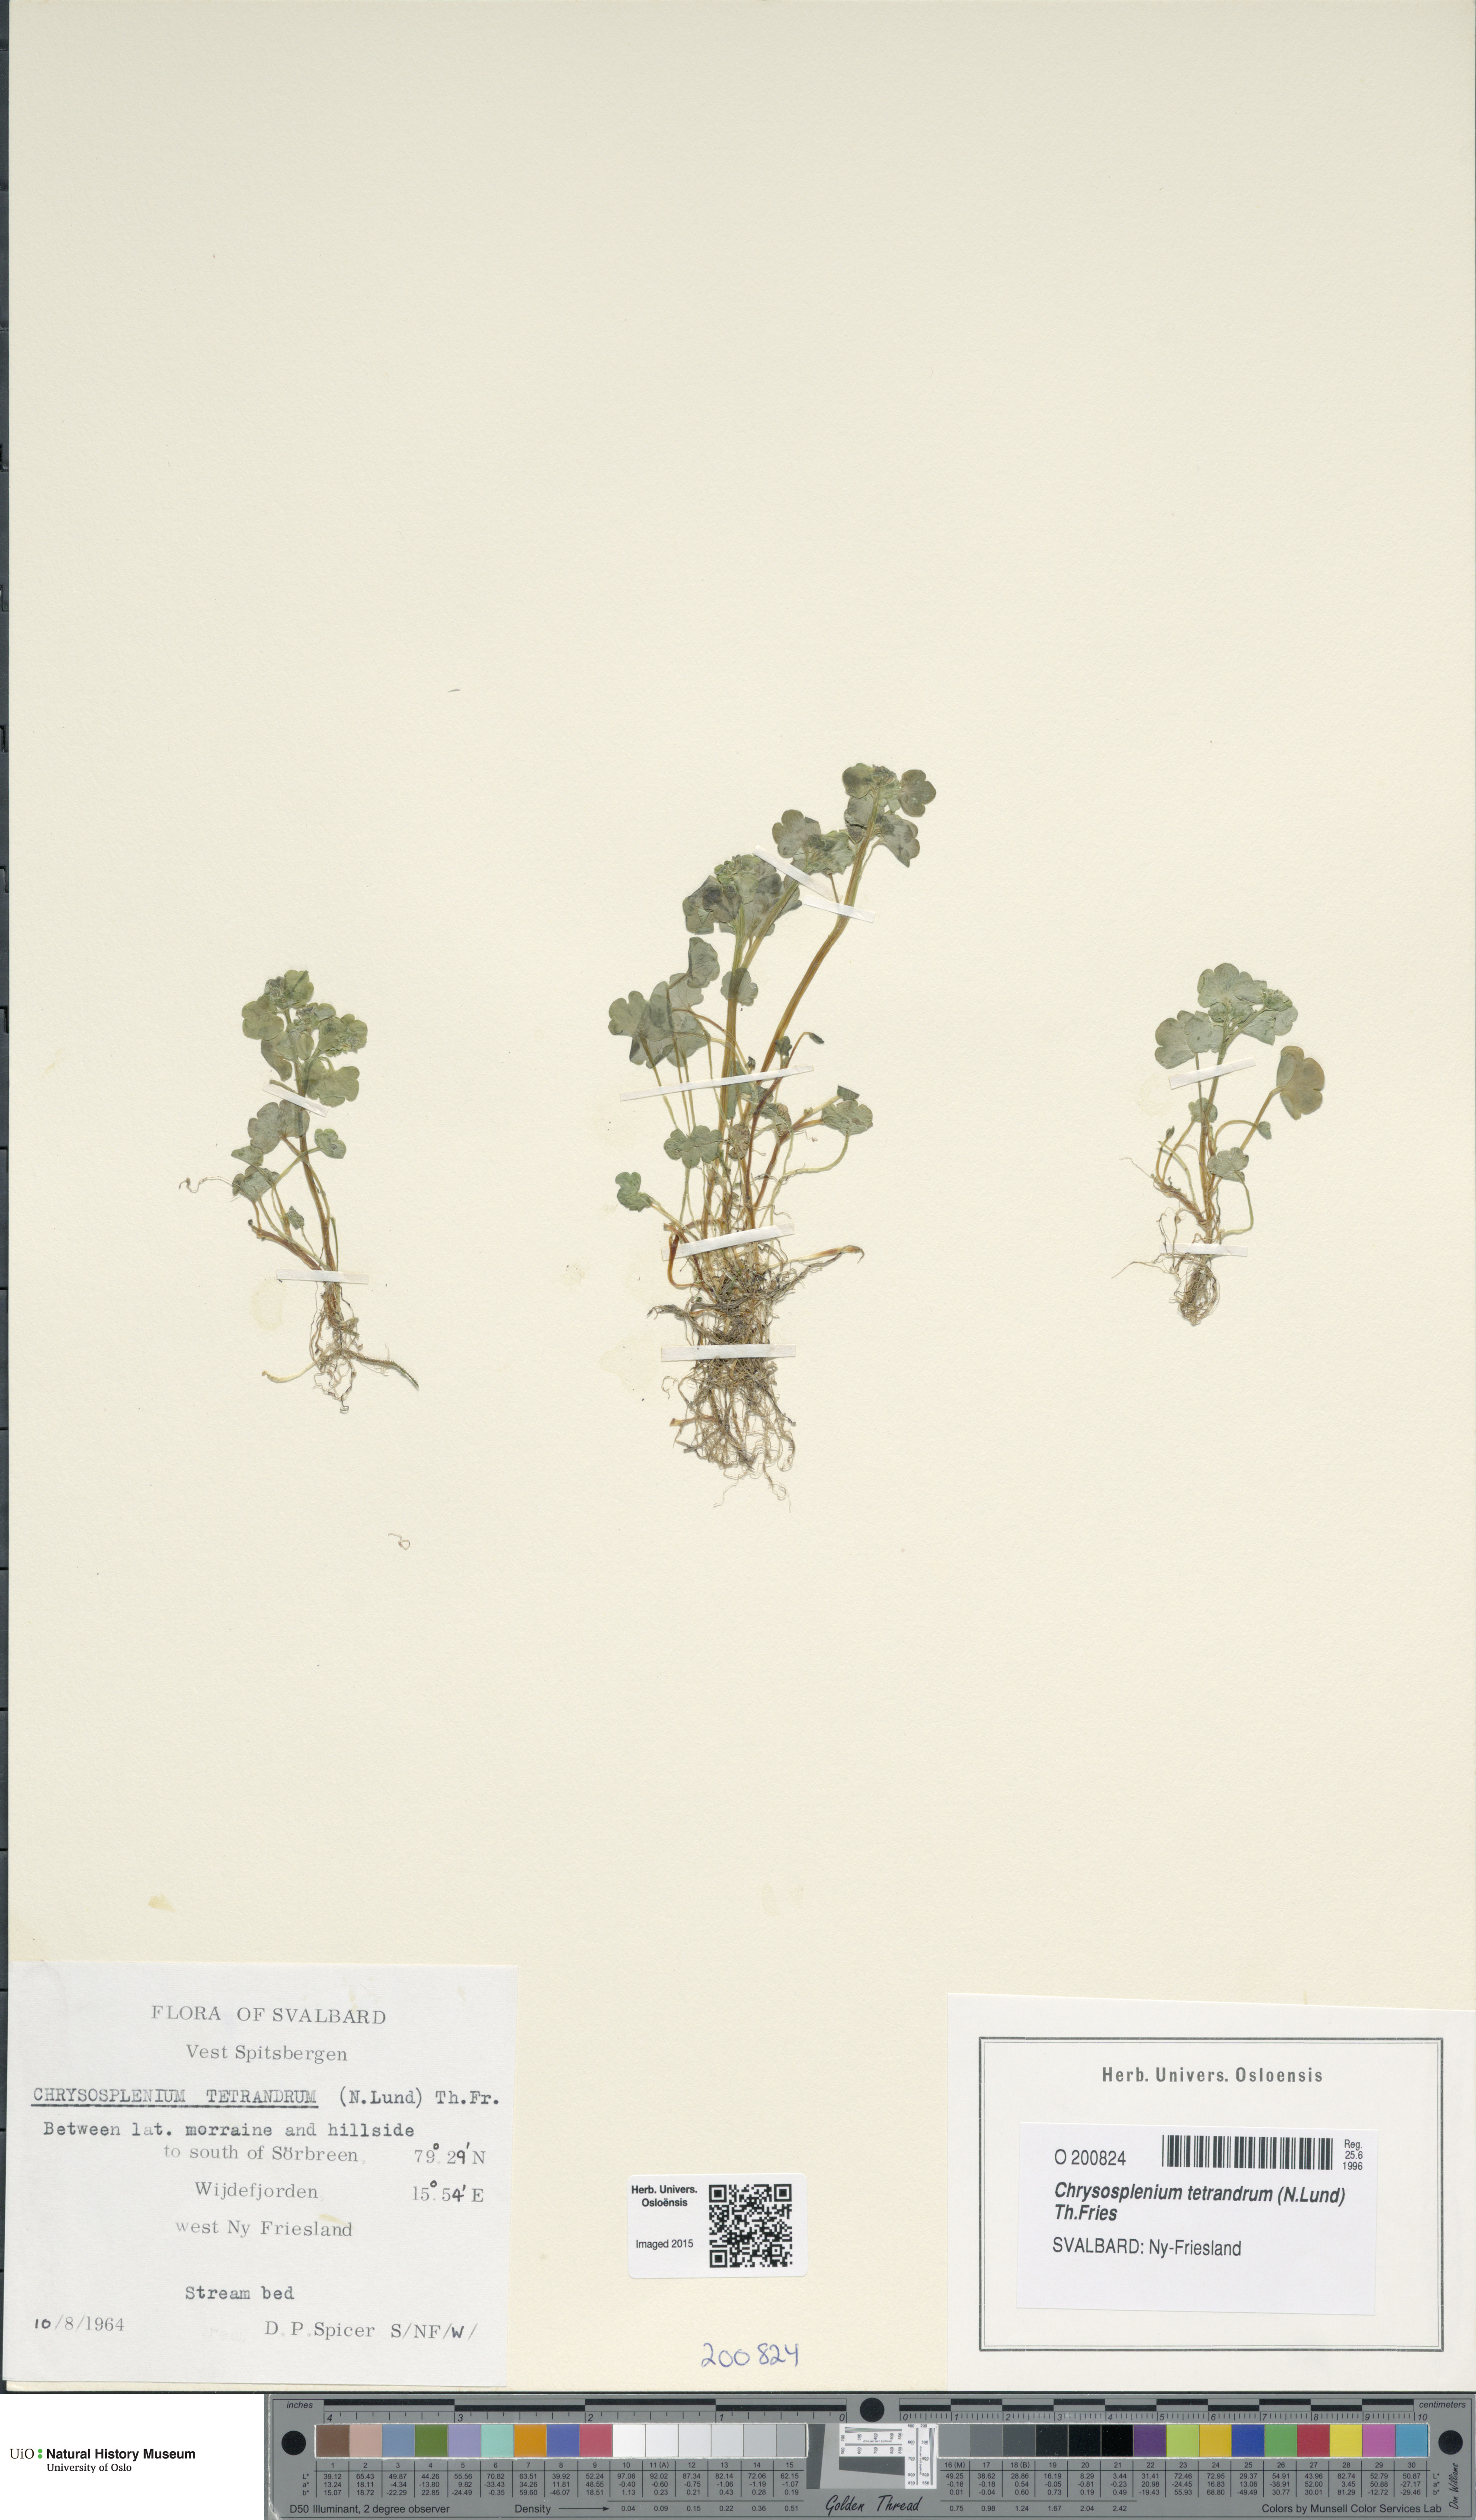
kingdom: Plantae
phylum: Tracheophyta
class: Magnoliopsida
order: Saxifragales
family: Saxifragaceae
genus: Chrysosplenium
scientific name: Chrysosplenium tetrandrum
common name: Green saxifrage
